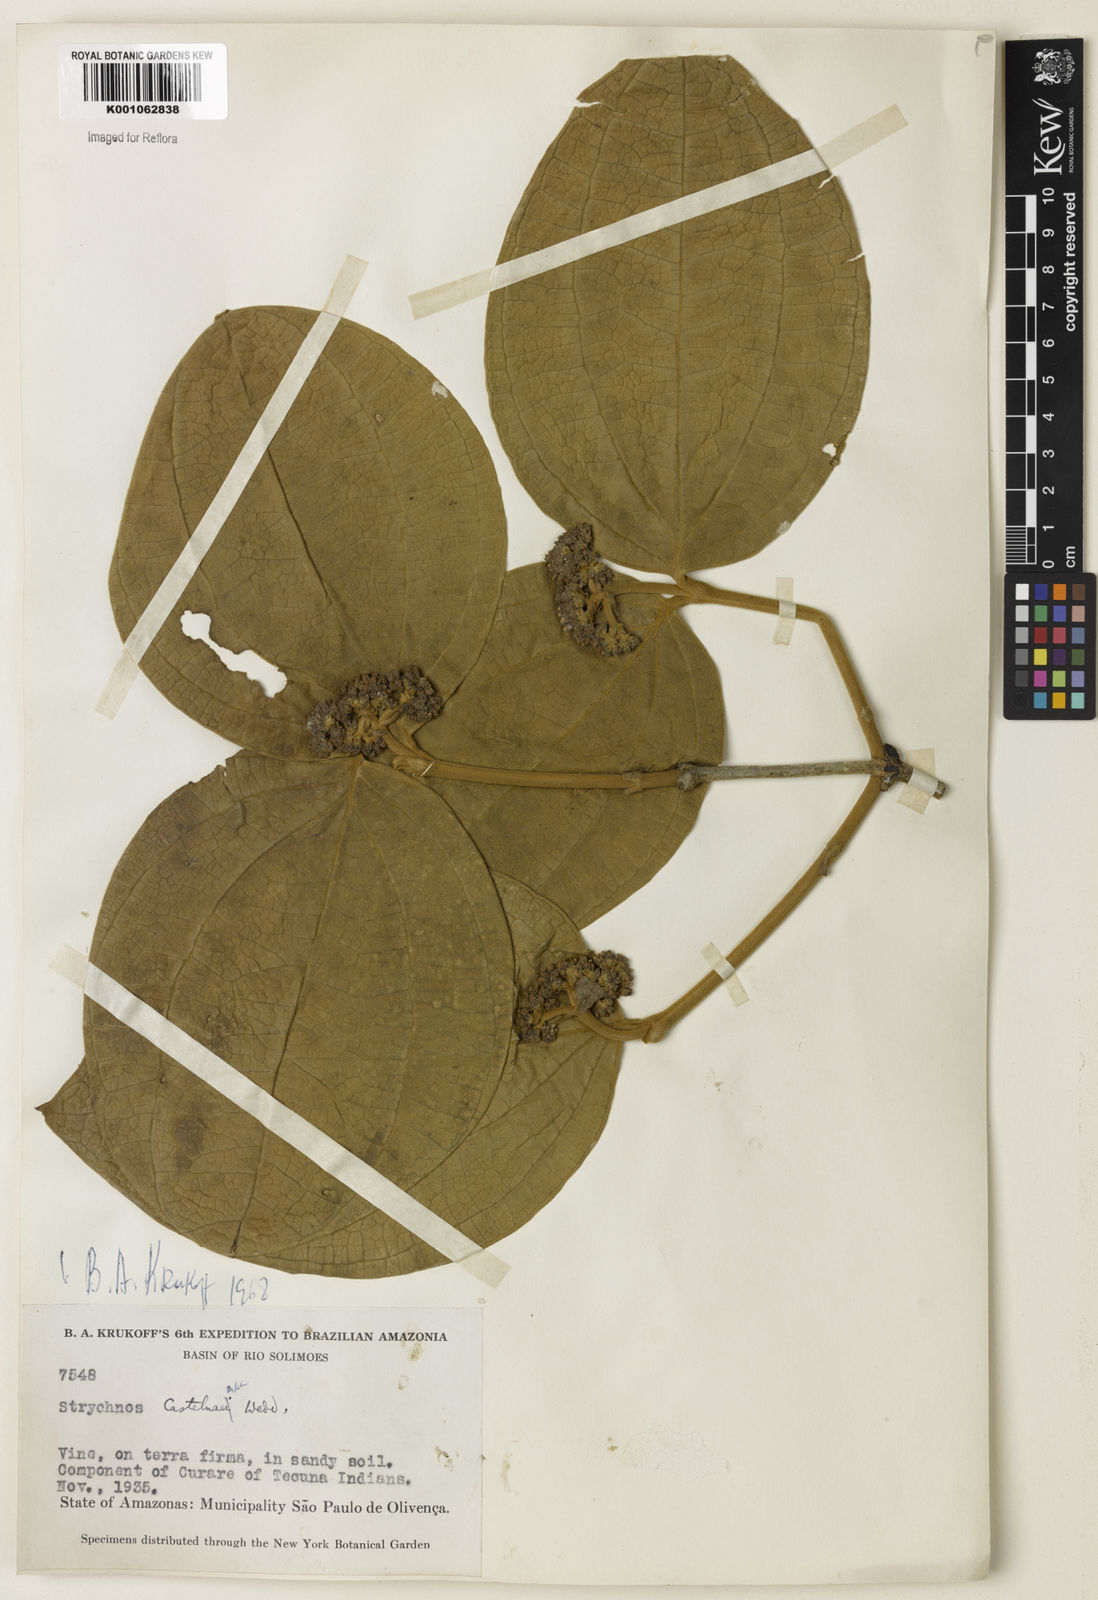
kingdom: Plantae
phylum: Tracheophyta
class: Magnoliopsida
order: Gentianales
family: Loganiaceae
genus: Strychnos
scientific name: Strychnos
